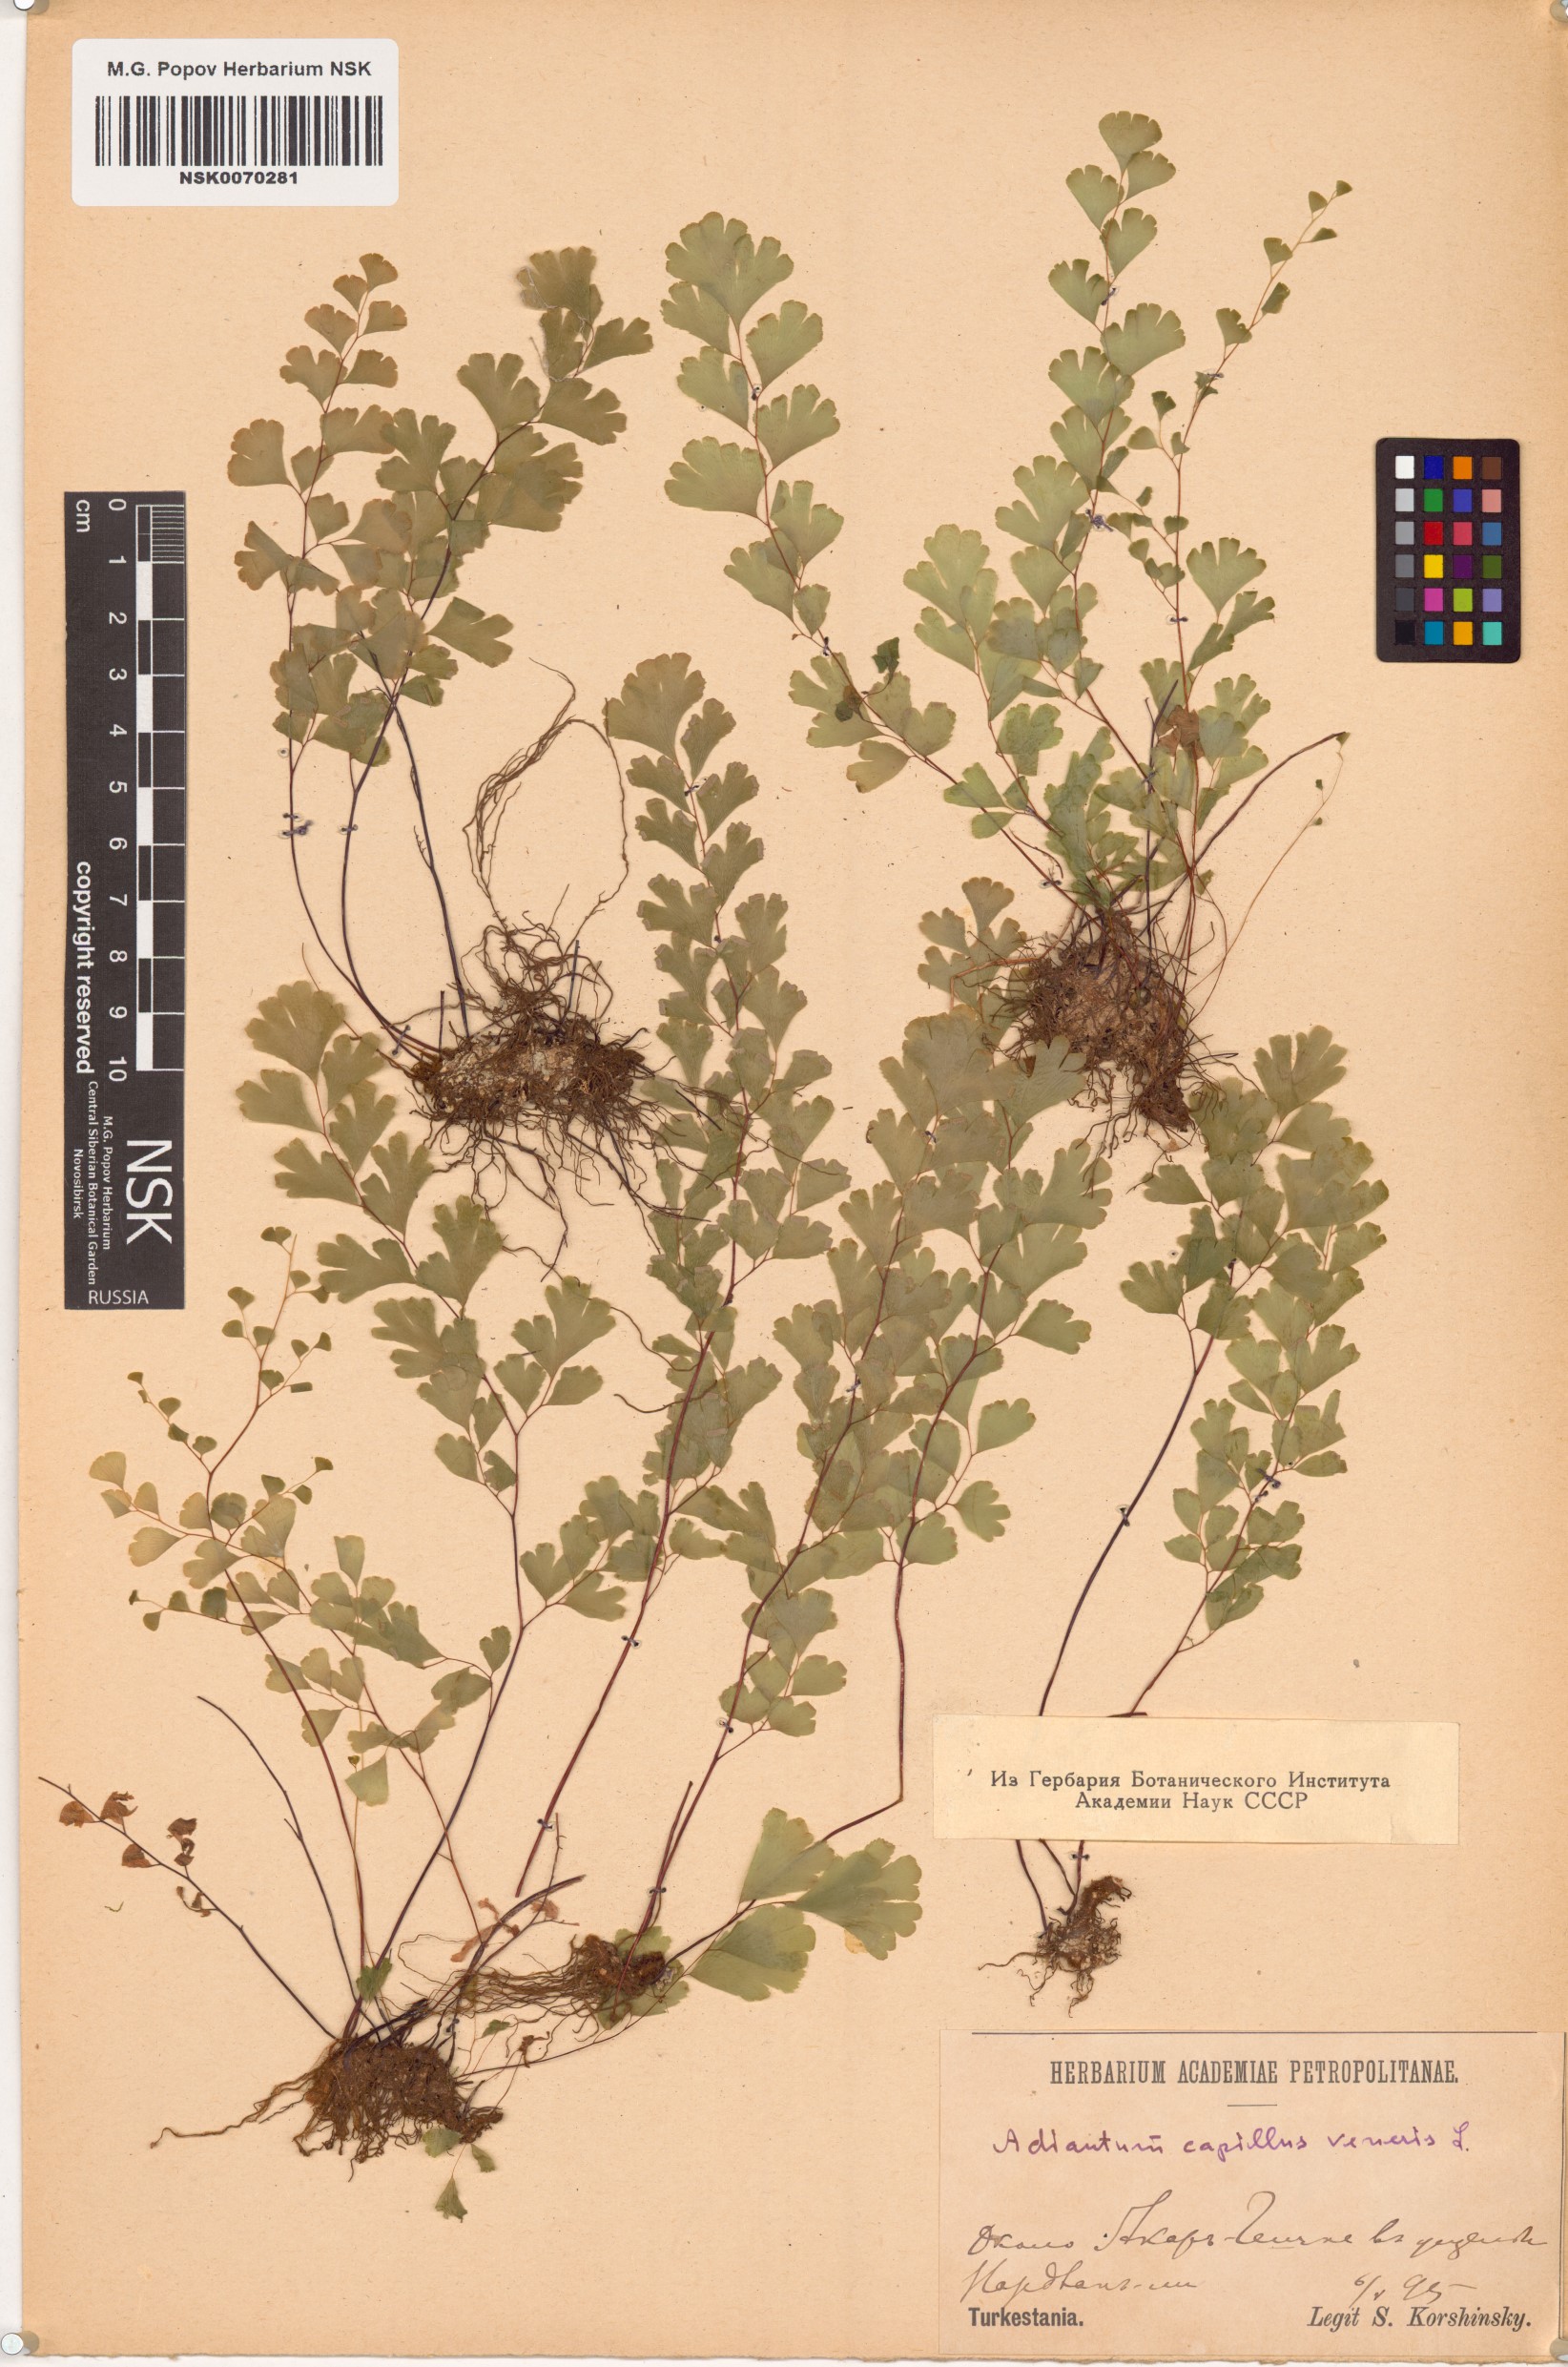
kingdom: Plantae
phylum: Tracheophyta
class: Polypodiopsida
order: Polypodiales
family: Pteridaceae
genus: Adiantum
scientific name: Adiantum capillus-veneris
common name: Maidenhair fern
